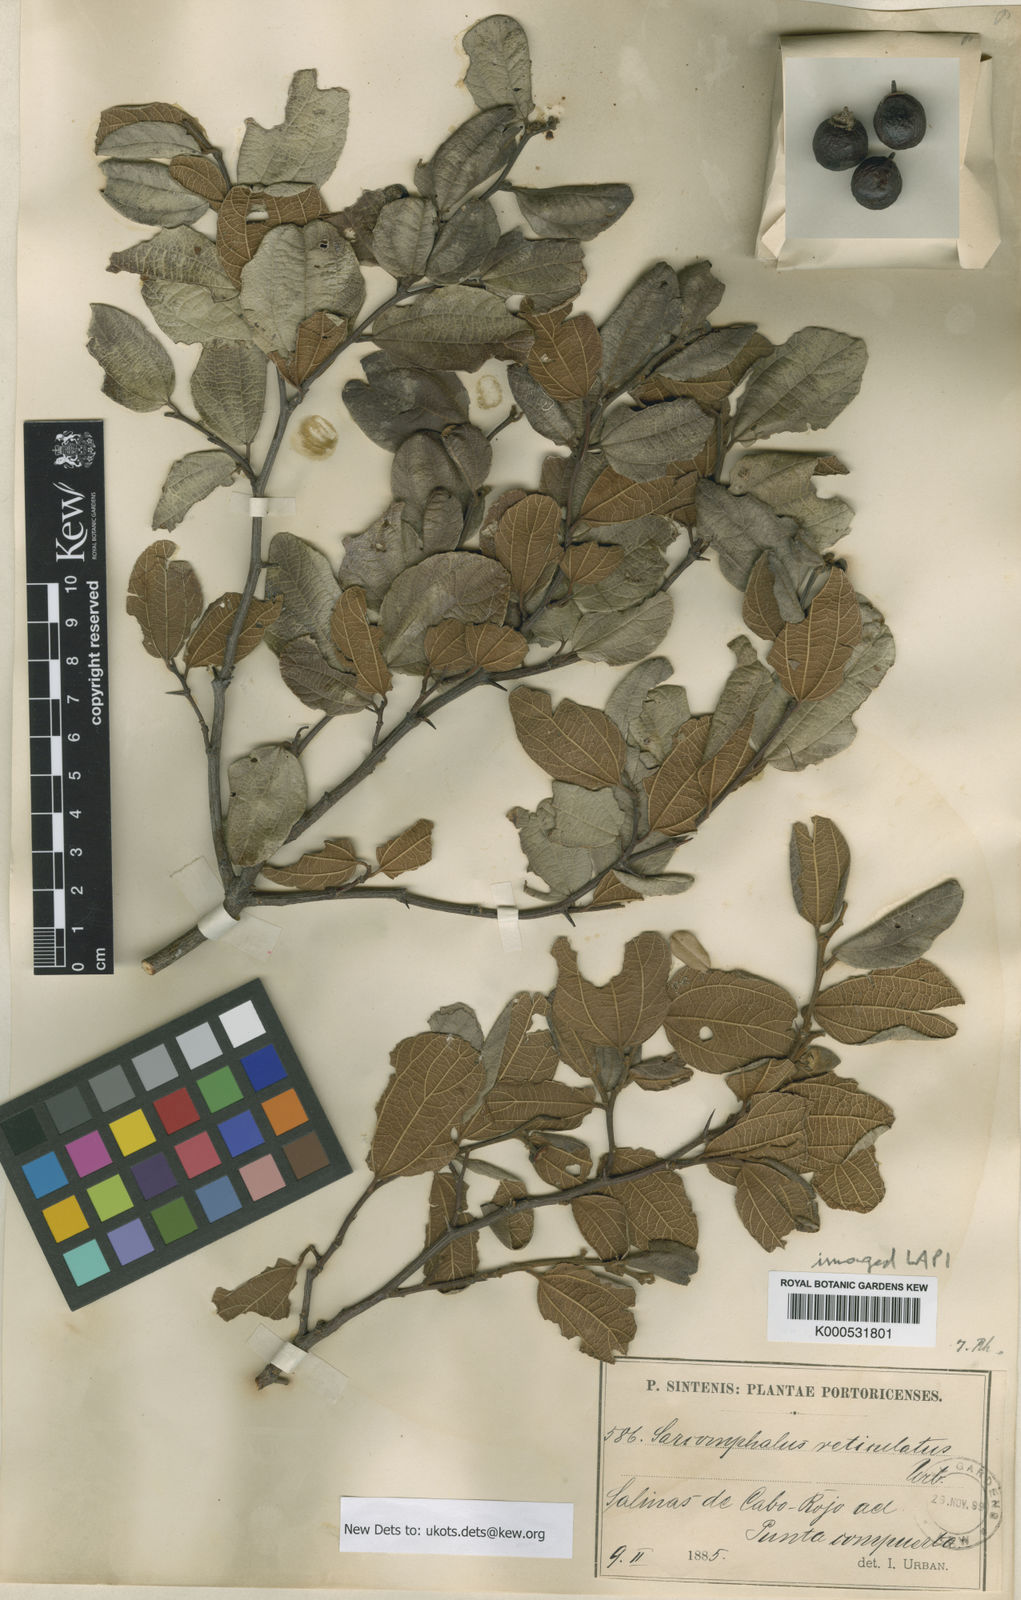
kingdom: Plantae
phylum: Tracheophyta
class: Magnoliopsida
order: Rosales
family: Rhamnaceae
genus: Sarcomphalus
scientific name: Sarcomphalus reticulatus
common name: Ironwood
